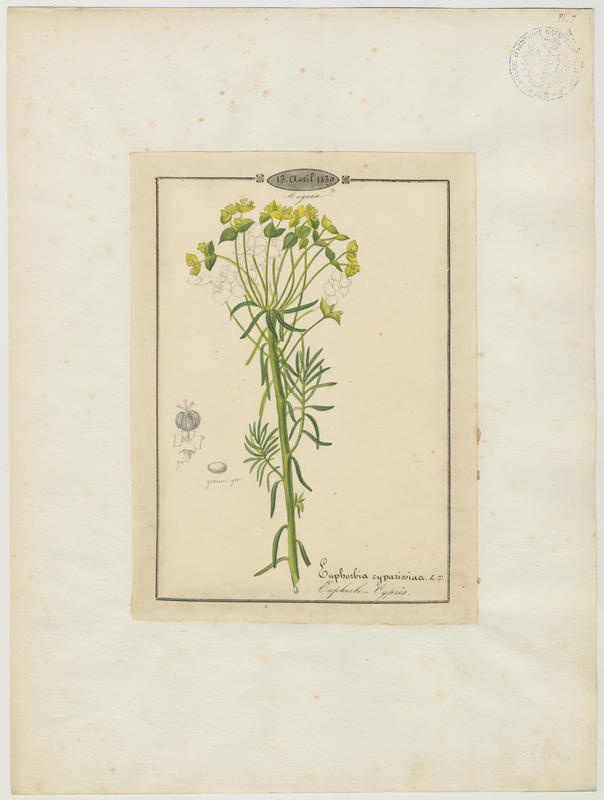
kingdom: Plantae
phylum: Tracheophyta
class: Magnoliopsida
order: Malpighiales
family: Euphorbiaceae
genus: Euphorbia
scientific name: Euphorbia cyparissias
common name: Cypress spurge
